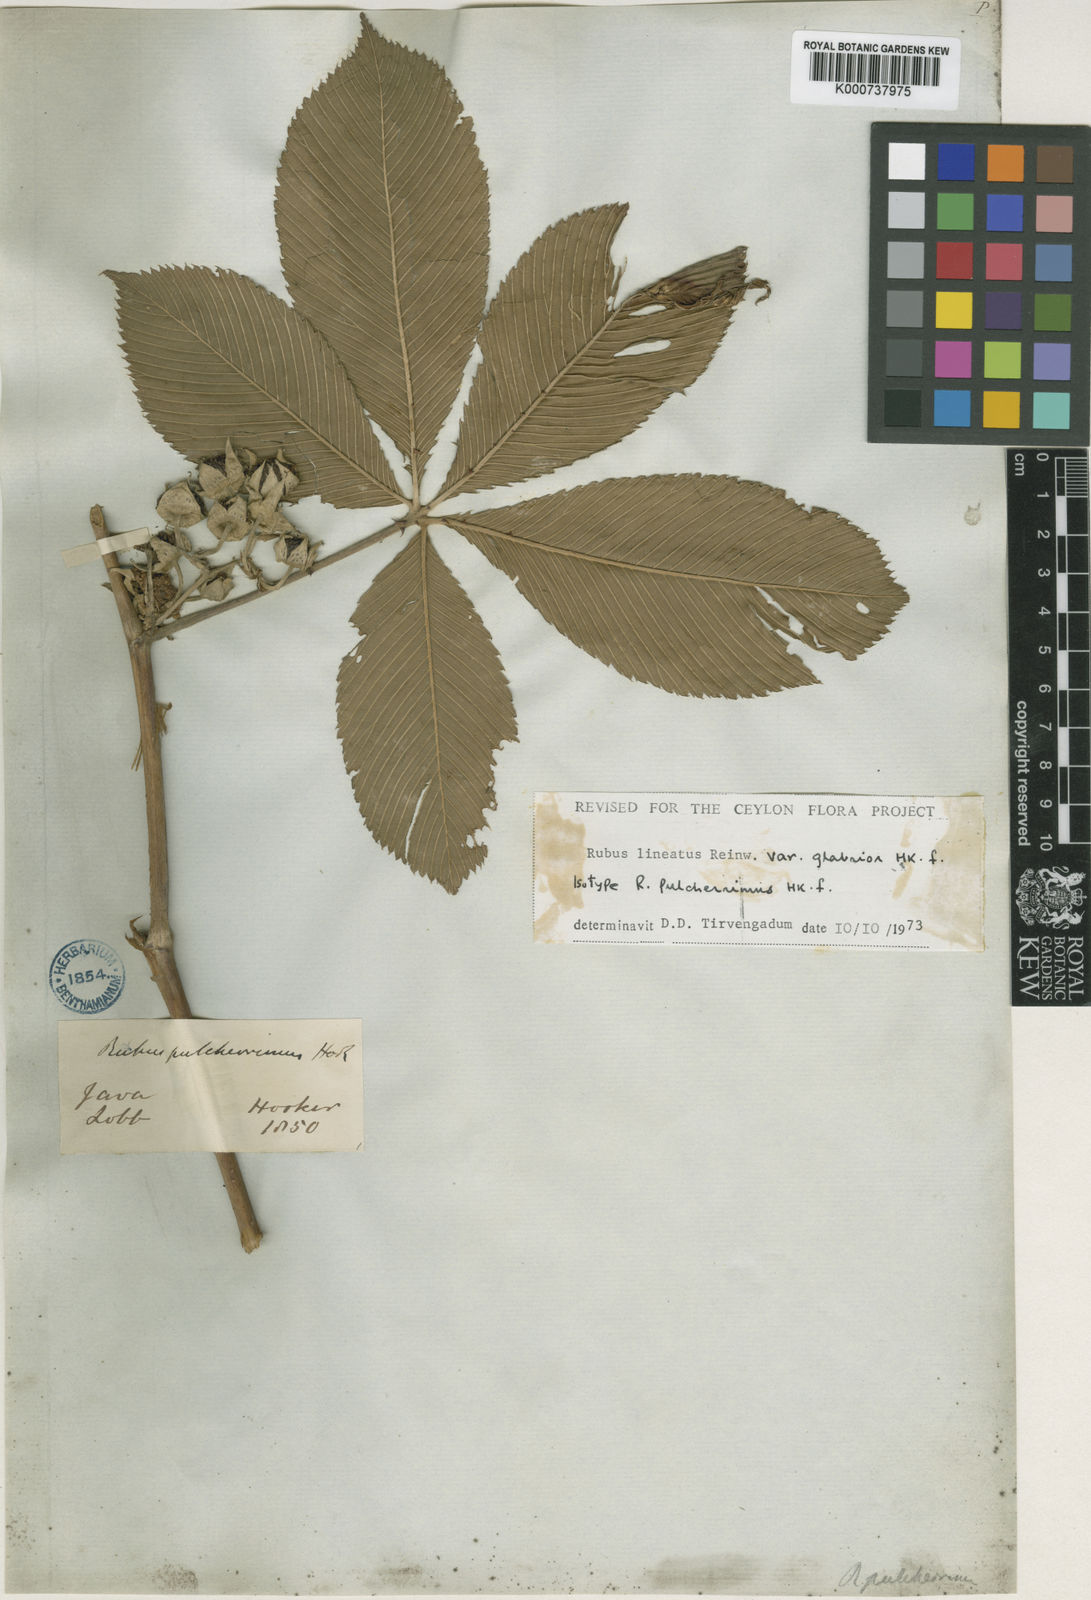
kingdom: Plantae
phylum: Tracheophyta
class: Magnoliopsida
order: Rosales
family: Rosaceae
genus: Rubus
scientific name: Rubus
